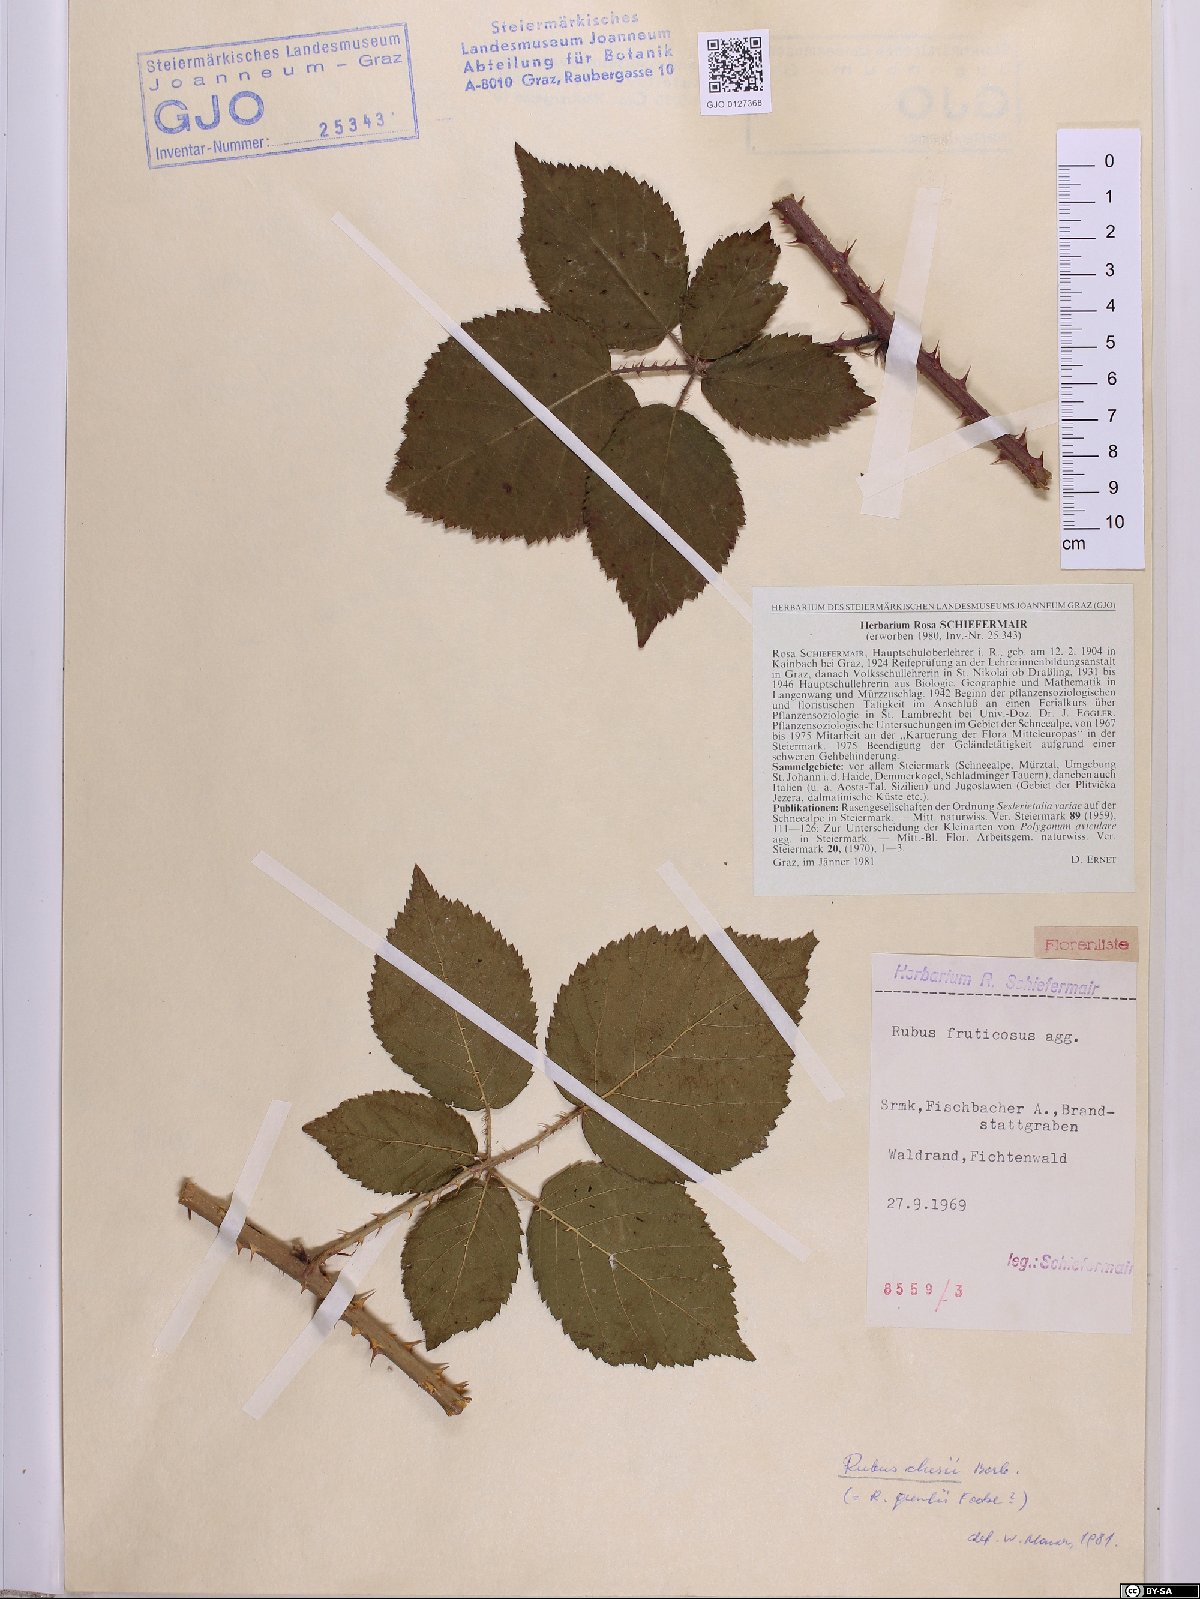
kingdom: Plantae
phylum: Tracheophyta
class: Magnoliopsida
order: Rosales
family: Rosaceae
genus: Rubus
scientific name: Rubus clusii
